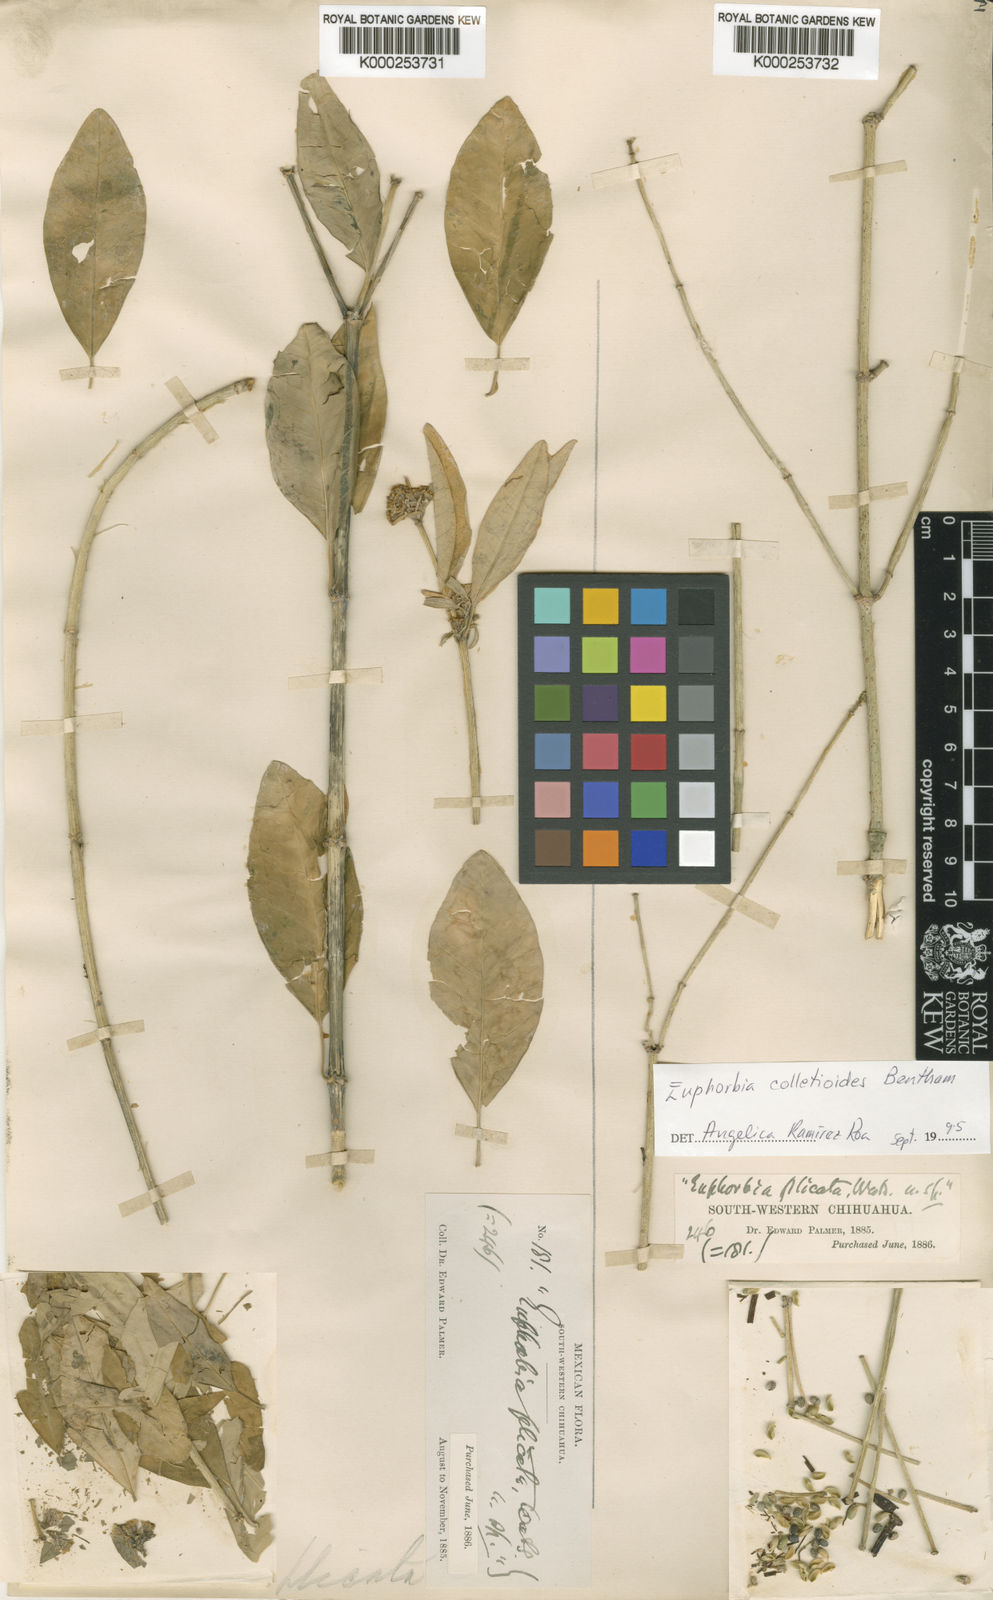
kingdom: Plantae
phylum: Tracheophyta
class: Magnoliopsida
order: Malpighiales
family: Euphorbiaceae
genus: Euphorbia
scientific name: Euphorbia colletioides
